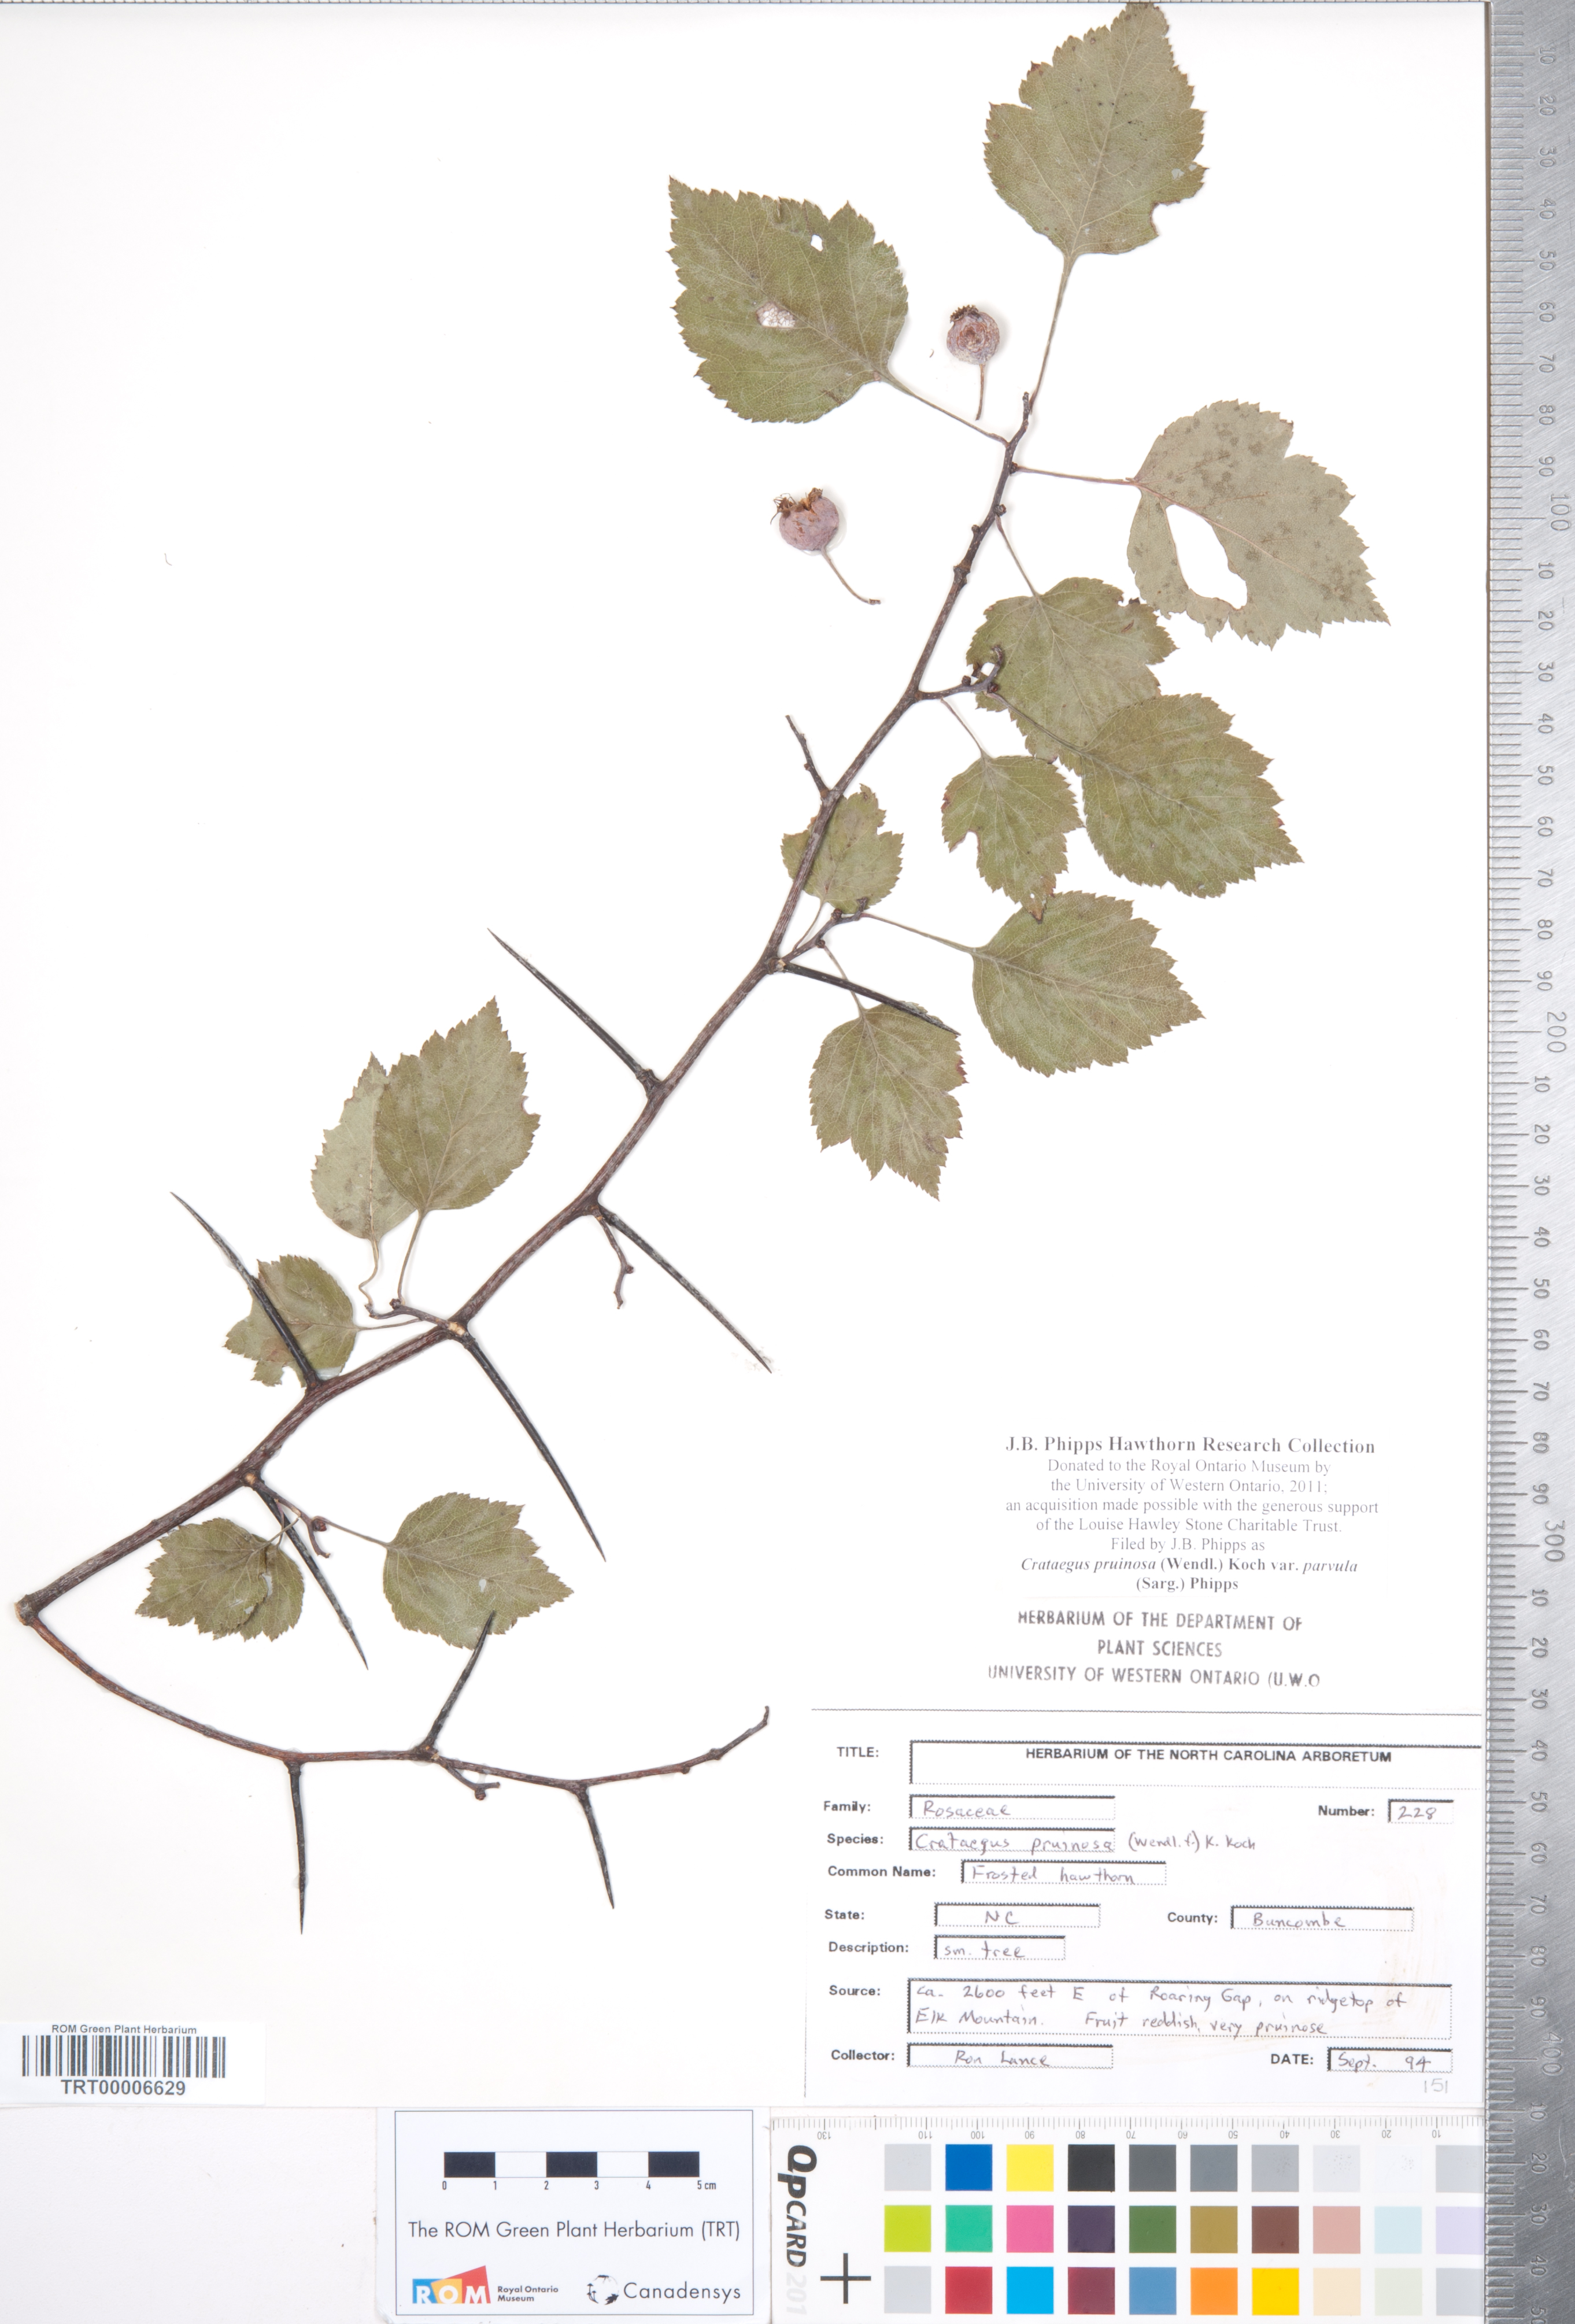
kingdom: Plantae
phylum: Tracheophyta
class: Magnoliopsida
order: Rosales
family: Rosaceae
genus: Crataegus
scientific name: Crataegus pruinosa
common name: Waxy-fruit hawthorn
